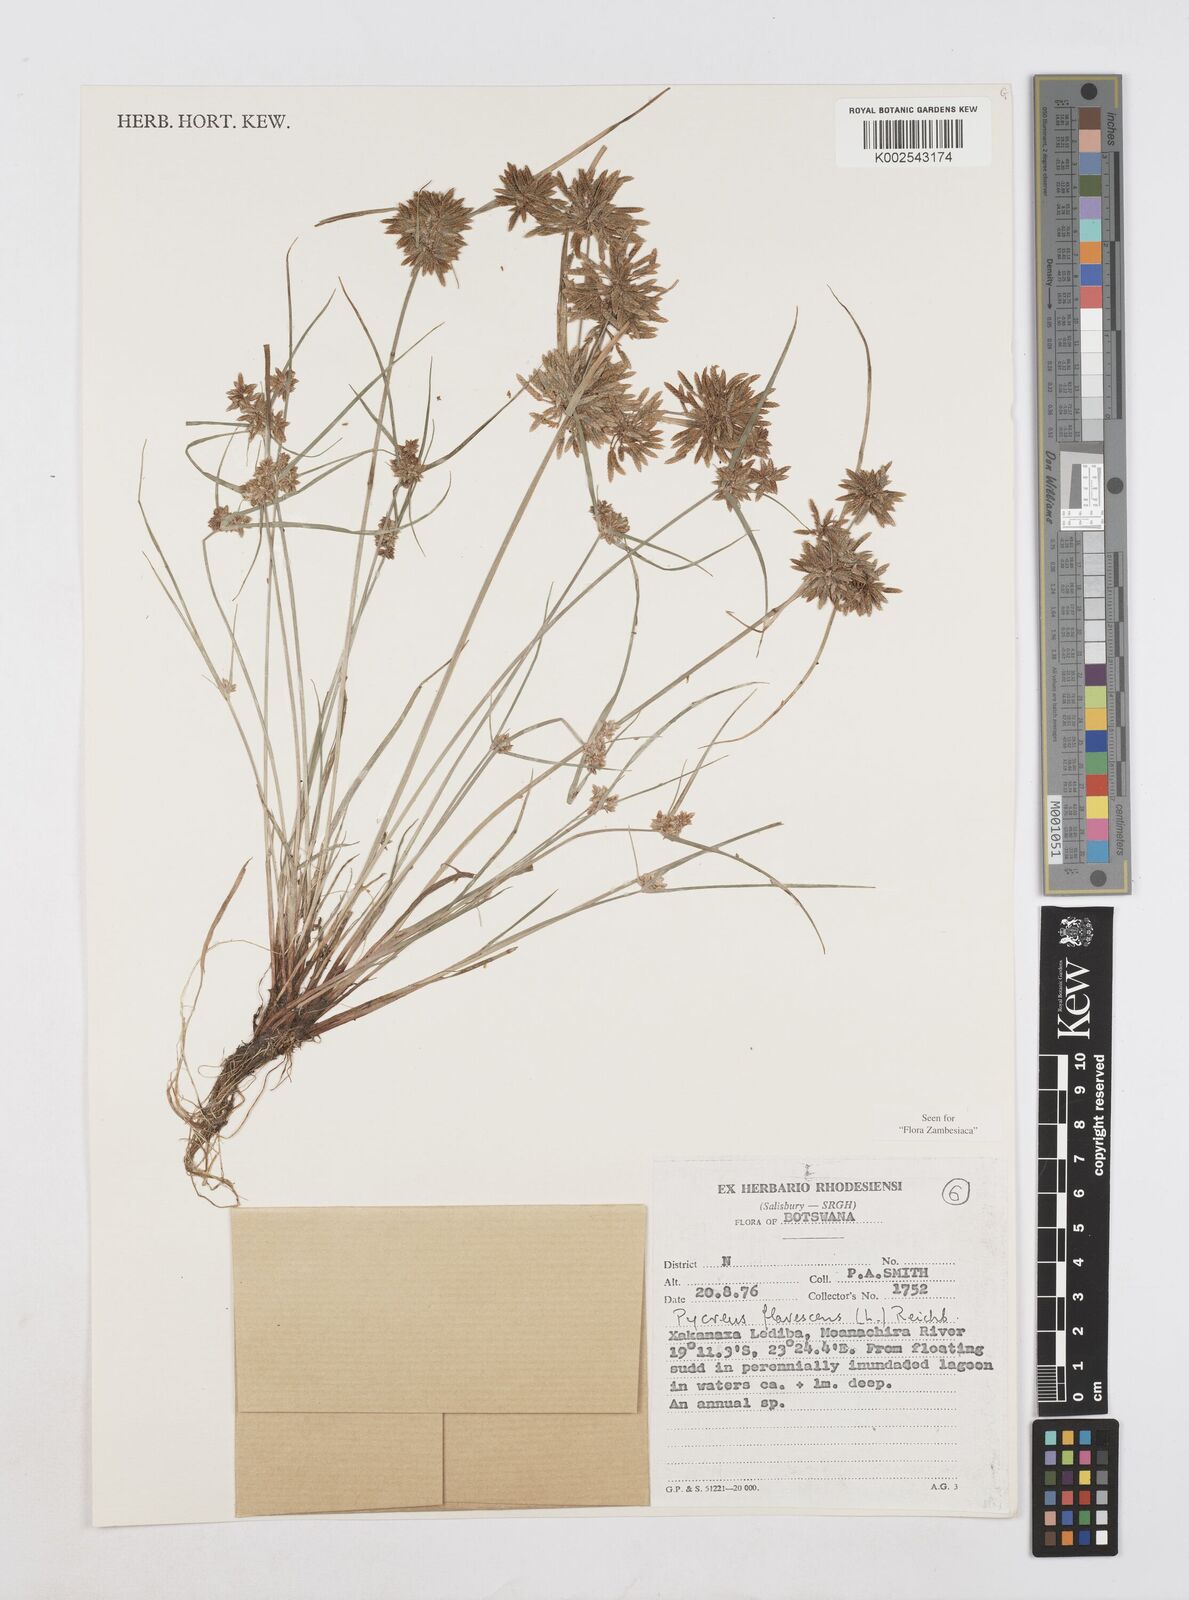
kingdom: Plantae
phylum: Tracheophyta
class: Liliopsida
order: Poales
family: Cyperaceae
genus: Cyperus
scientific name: Cyperus flavescens
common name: Yellow galingale
